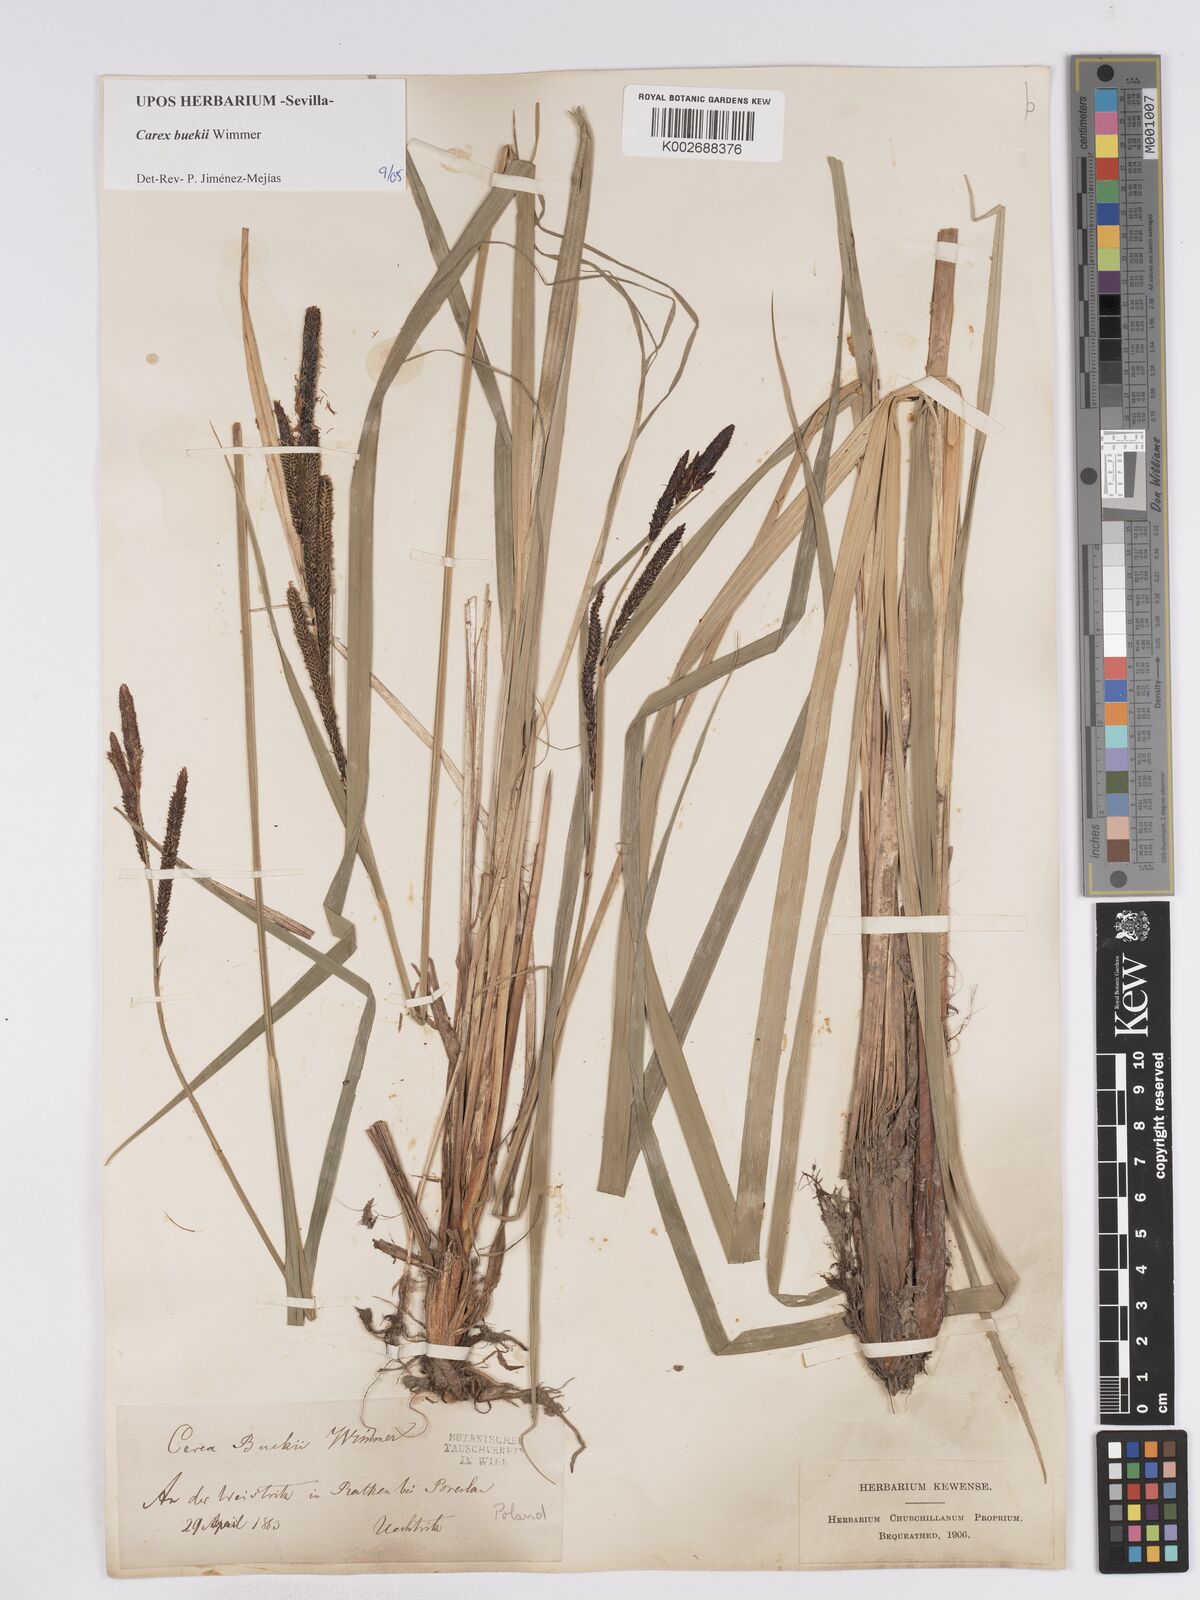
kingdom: Plantae
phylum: Tracheophyta
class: Liliopsida
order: Poales
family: Cyperaceae
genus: Carex
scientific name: Carex buekii
